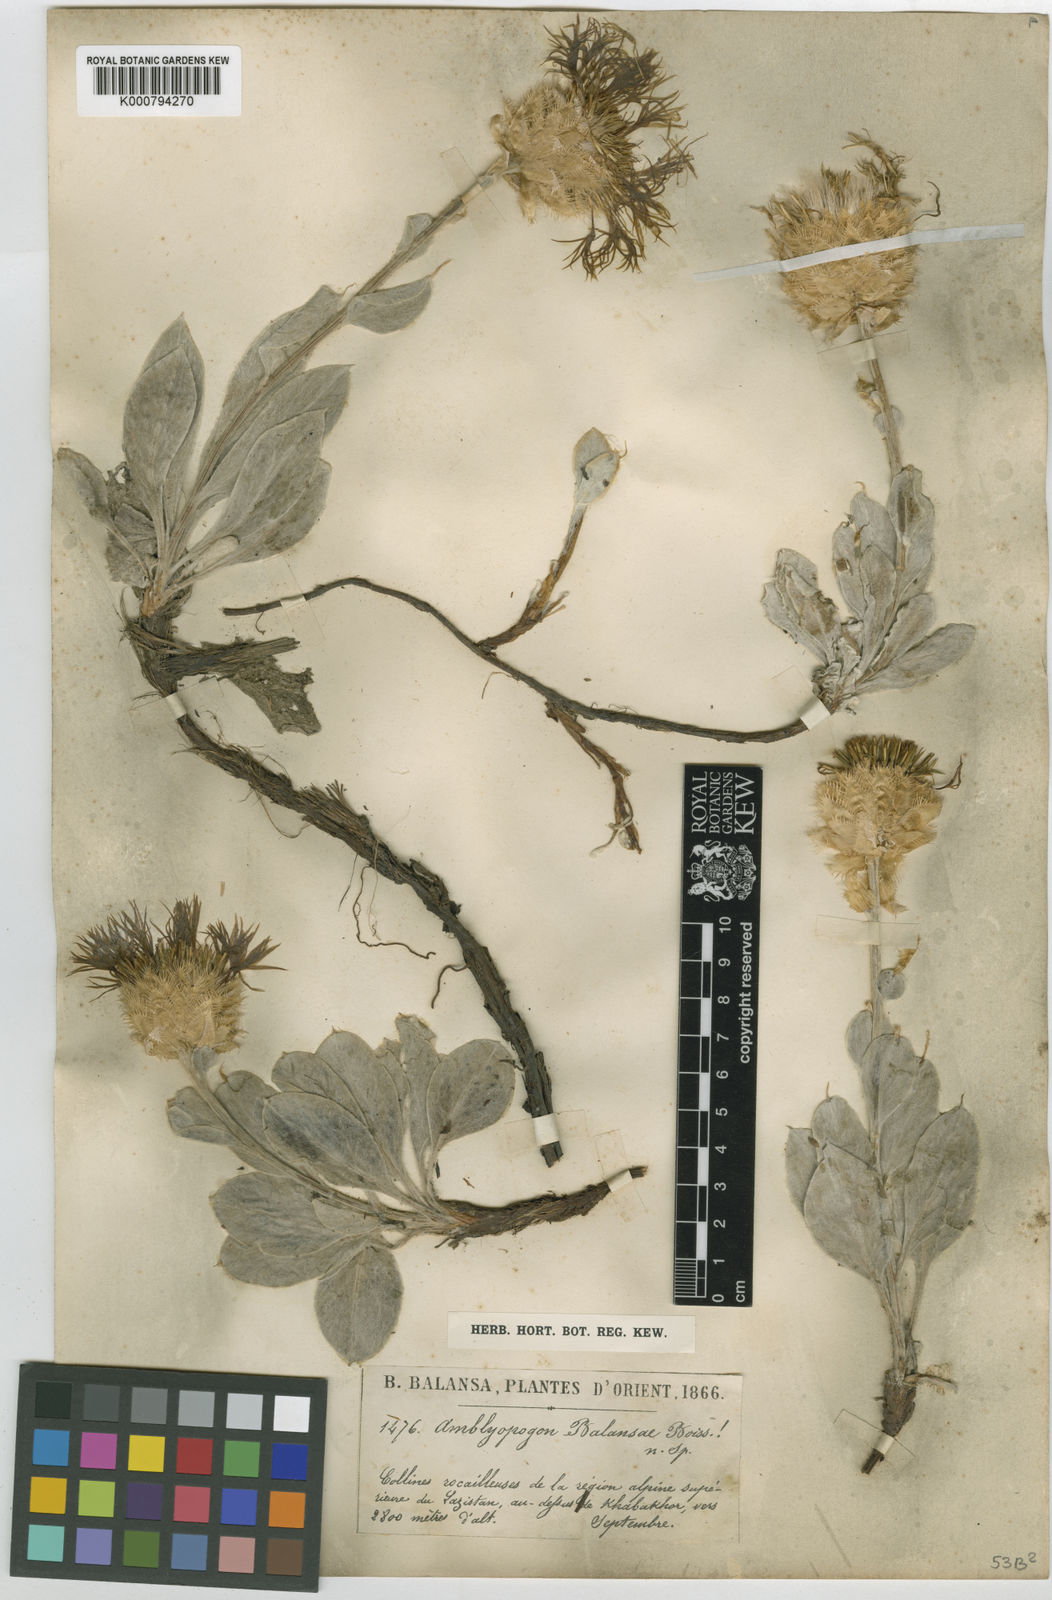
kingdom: Plantae
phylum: Tracheophyta
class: Magnoliopsida
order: Asterales
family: Asteraceae
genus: Psephellus
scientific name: Psephellus appendicigerus
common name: Appendage-bearing centaury
